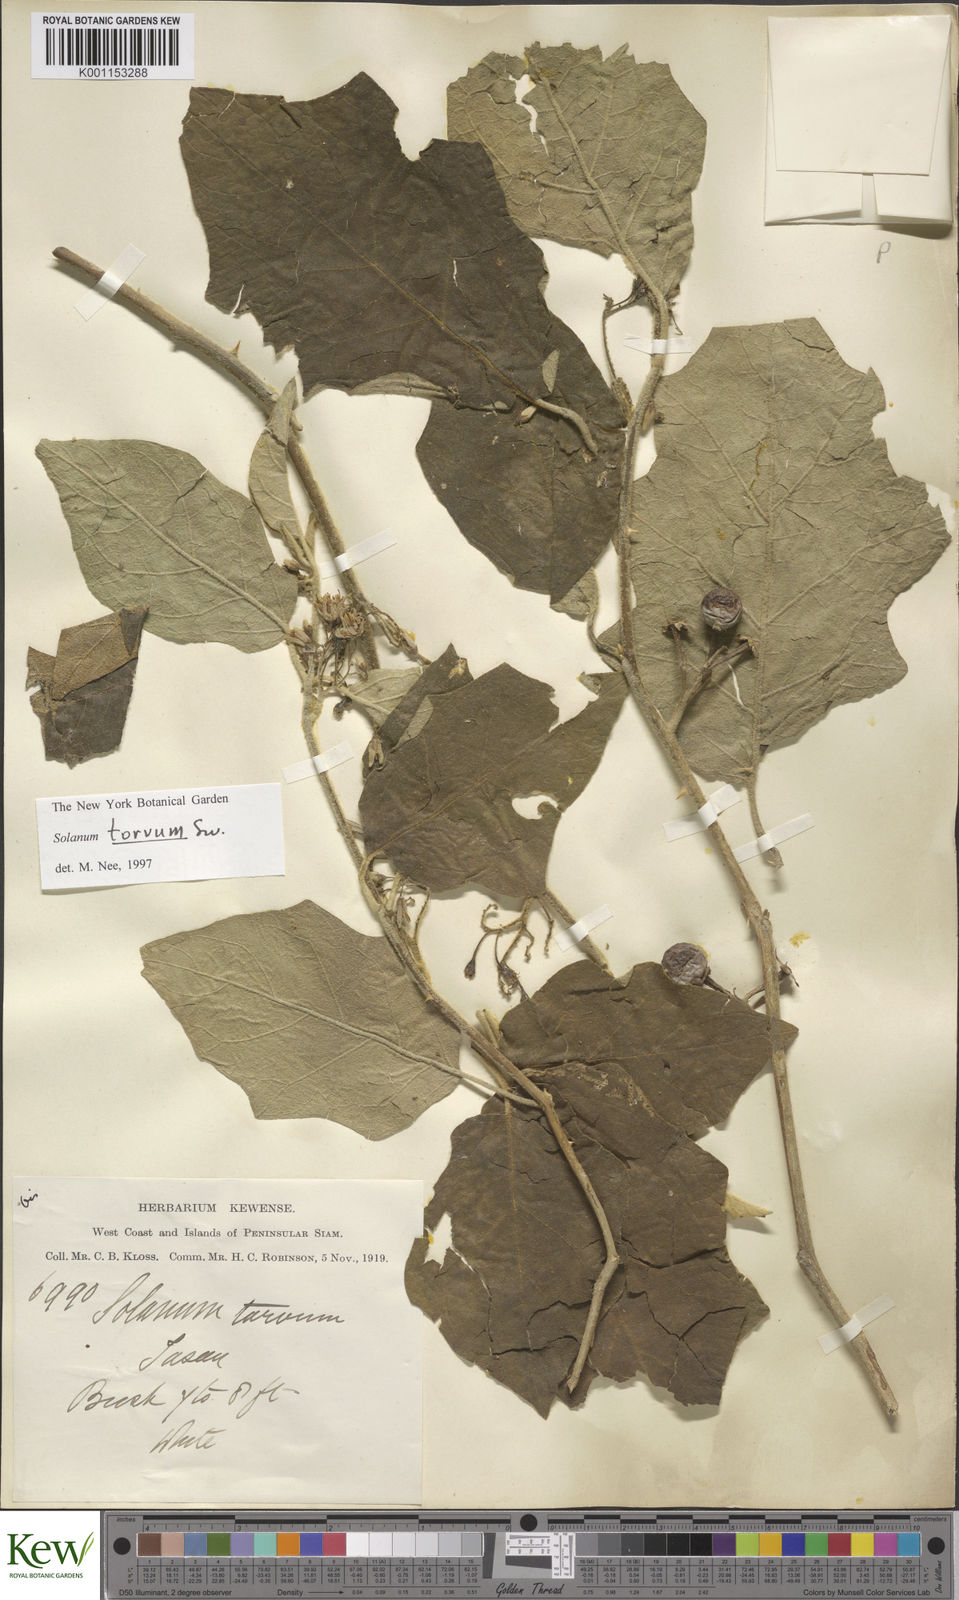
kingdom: Plantae
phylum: Tracheophyta
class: Magnoliopsida
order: Solanales
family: Solanaceae
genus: Solanum
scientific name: Solanum torvum
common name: Turkey berry
